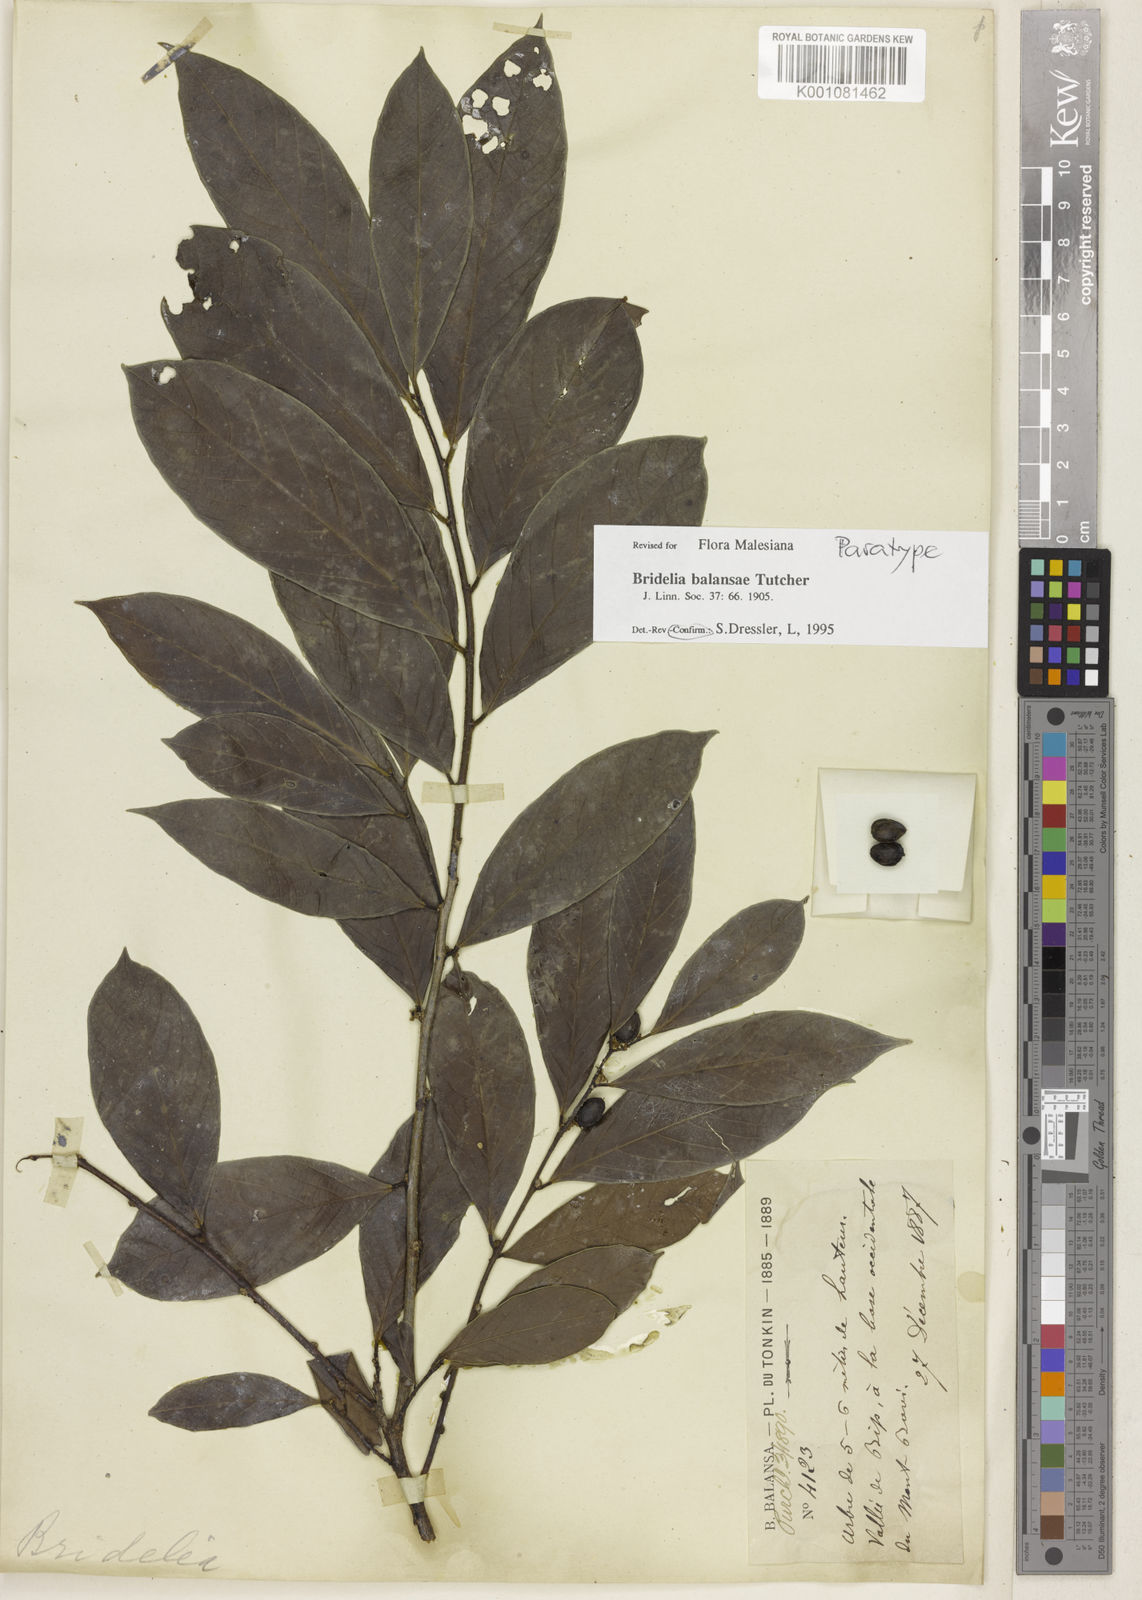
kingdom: Plantae
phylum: Tracheophyta
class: Magnoliopsida
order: Malpighiales
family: Phyllanthaceae
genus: Bridelia
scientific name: Bridelia balansae
